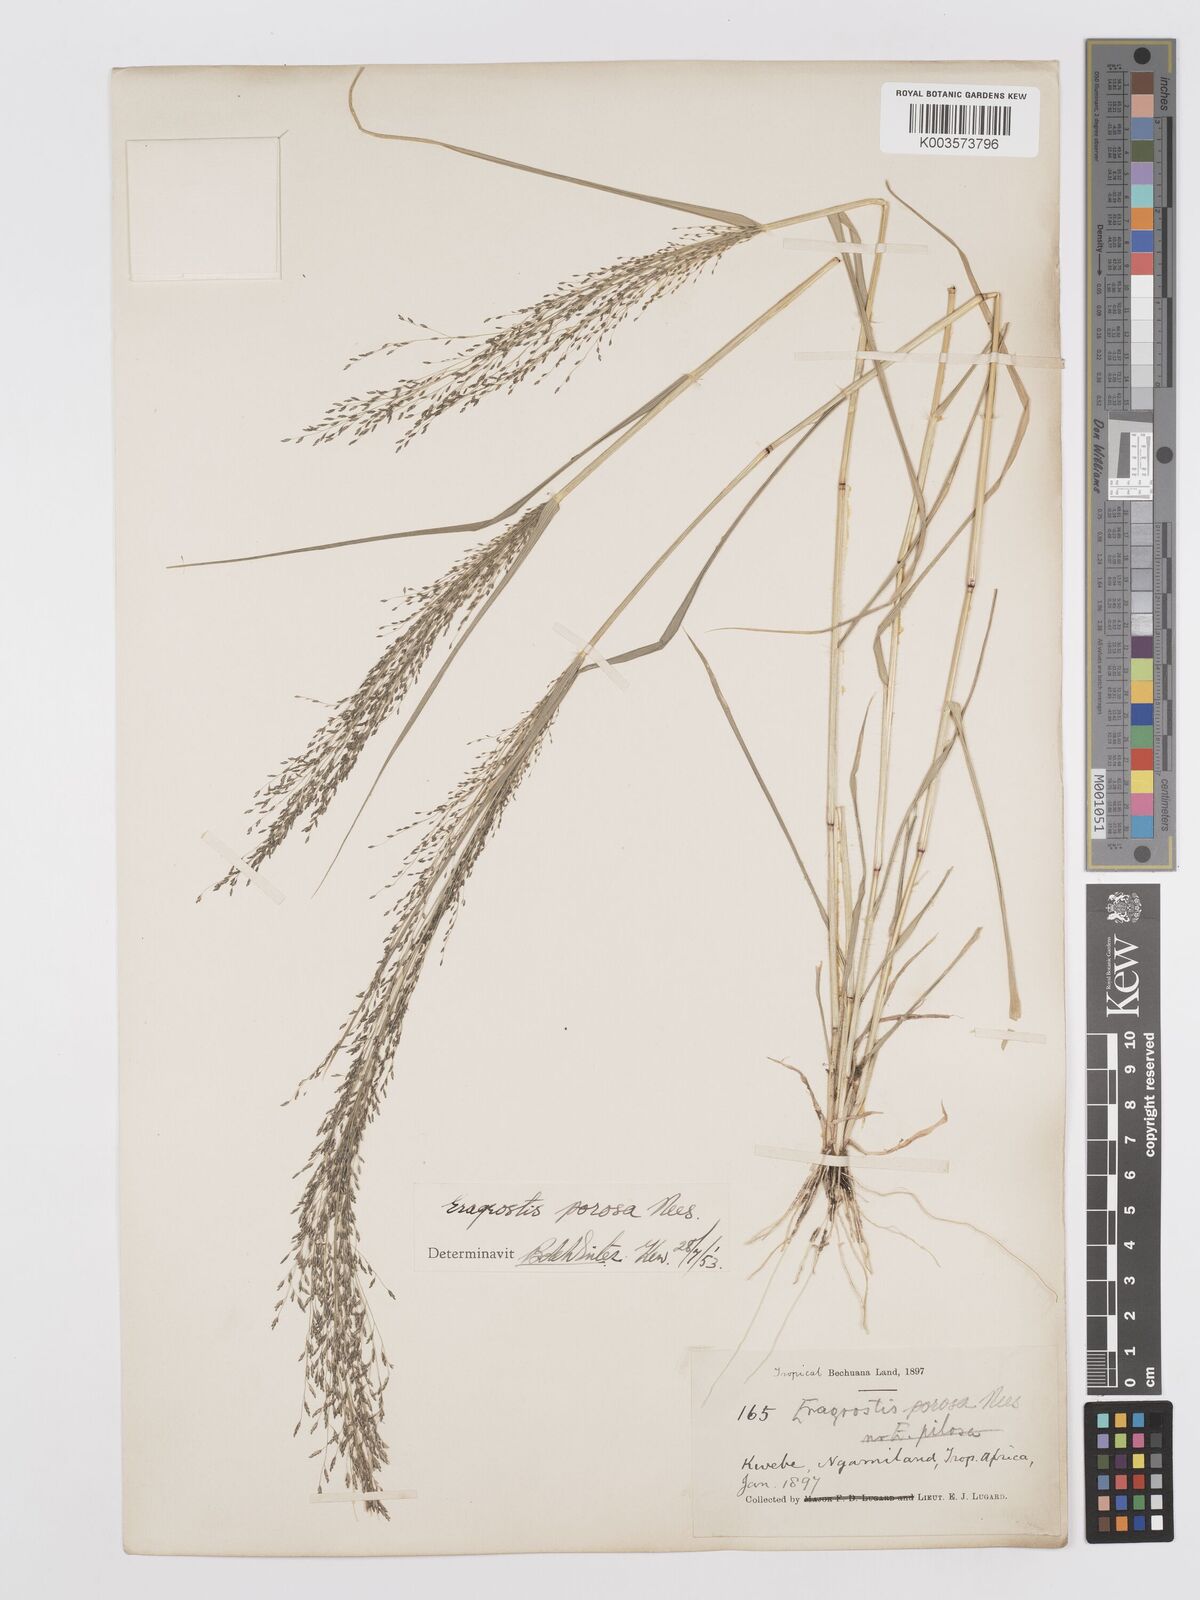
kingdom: Plantae
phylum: Tracheophyta
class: Liliopsida
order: Poales
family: Poaceae
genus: Eragrostis
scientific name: Eragrostis porosa
